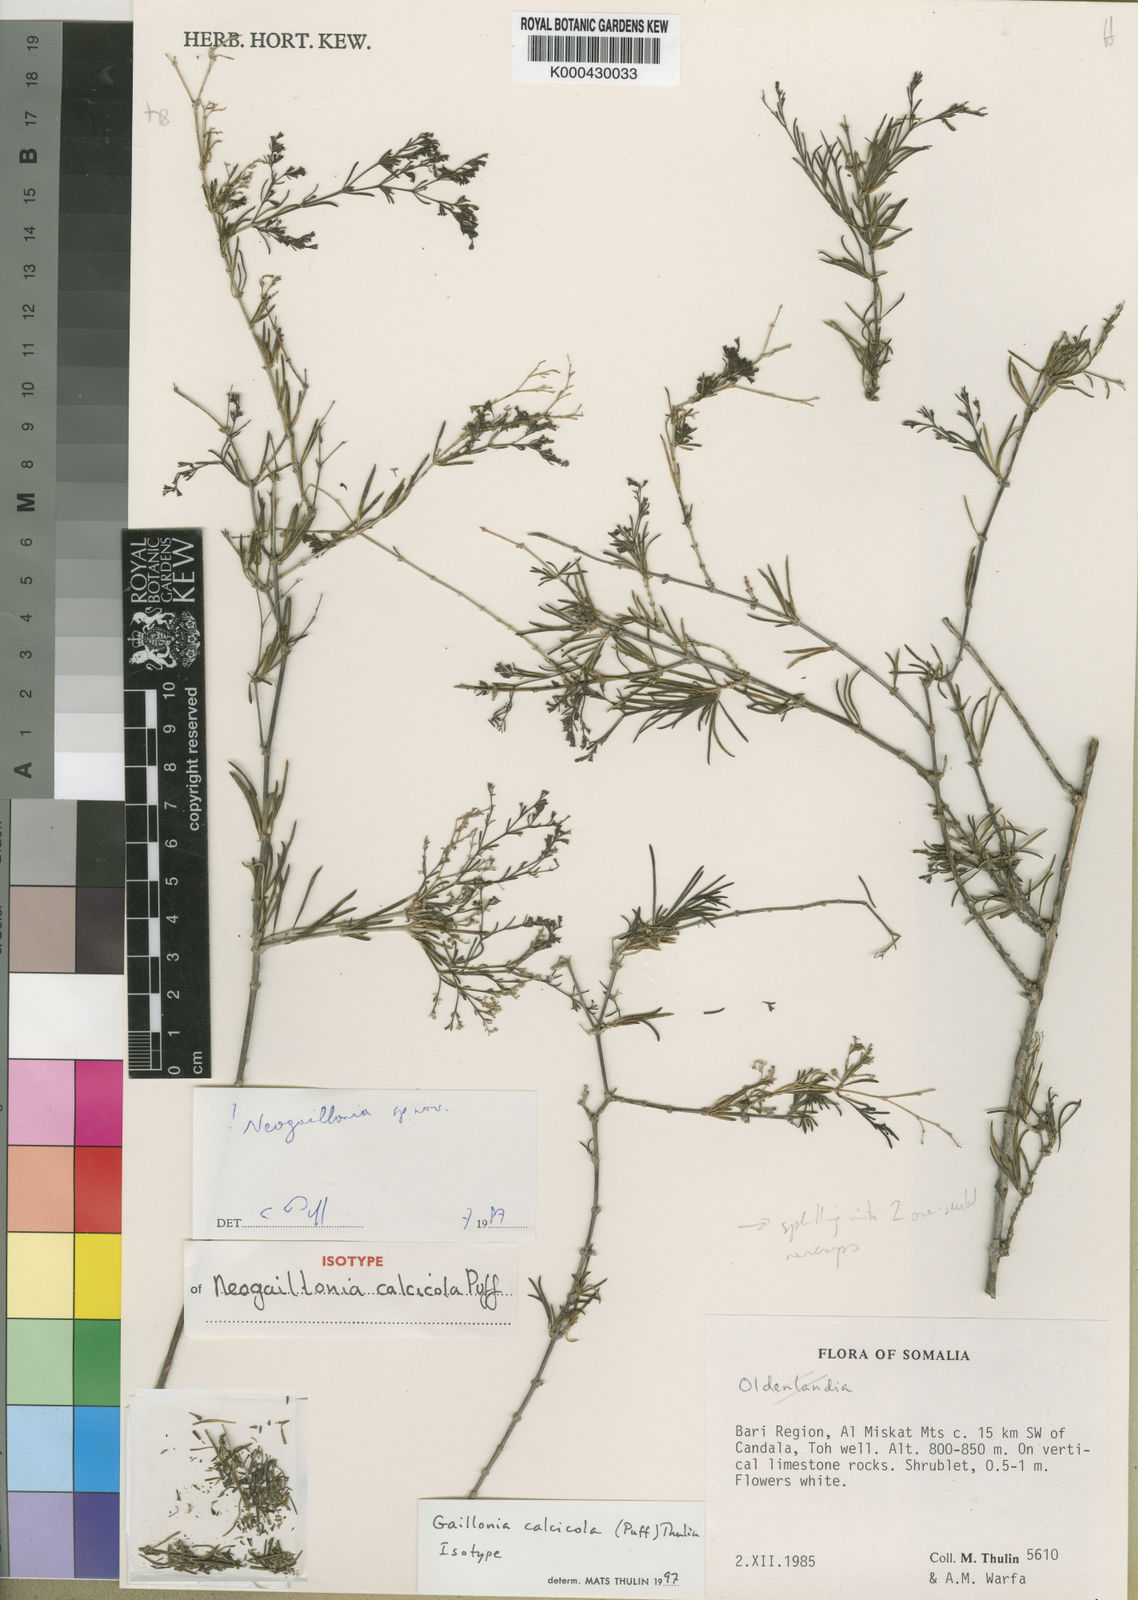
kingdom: Plantae
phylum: Tracheophyta
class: Magnoliopsida
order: Gentianales
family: Rubiaceae
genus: Plocama
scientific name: Plocama
